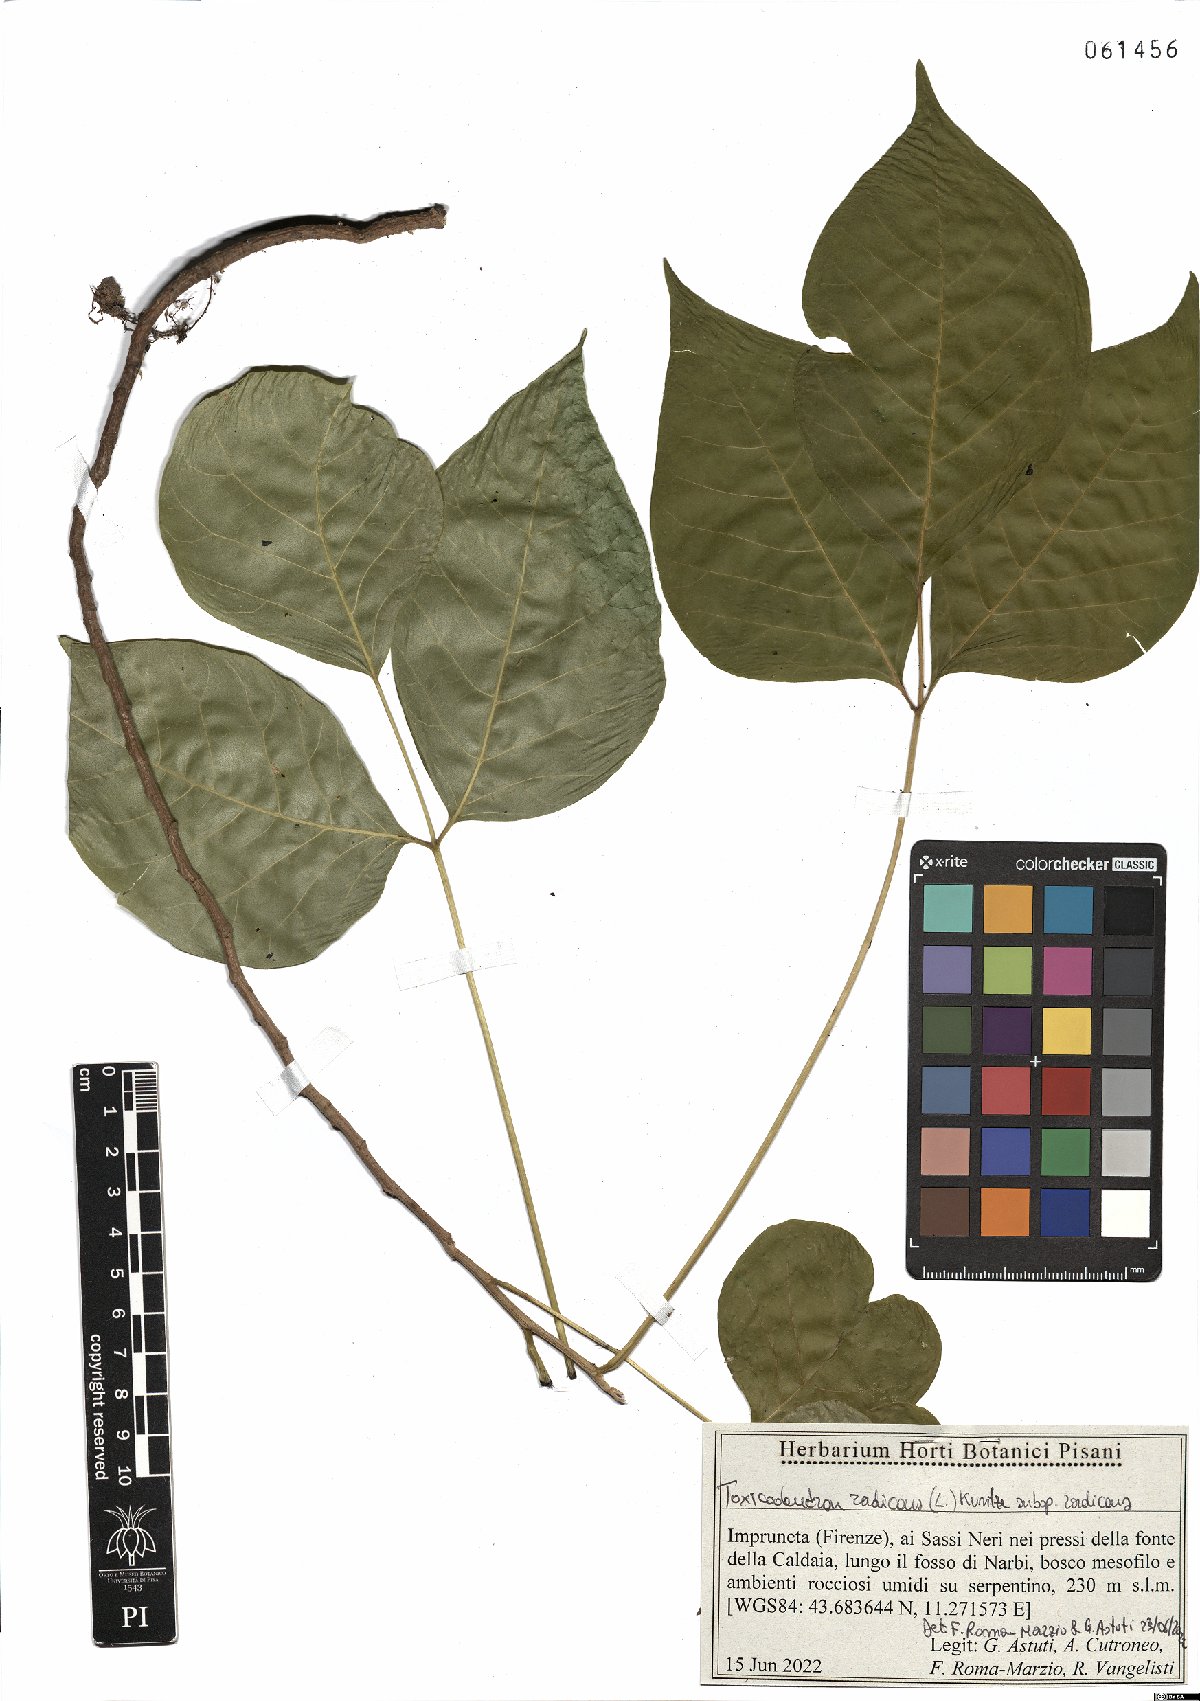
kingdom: Plantae
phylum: Tracheophyta
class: Magnoliopsida
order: Sapindales
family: Anacardiaceae
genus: Toxicodendron
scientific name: Toxicodendron radicans
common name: Poison ivy
